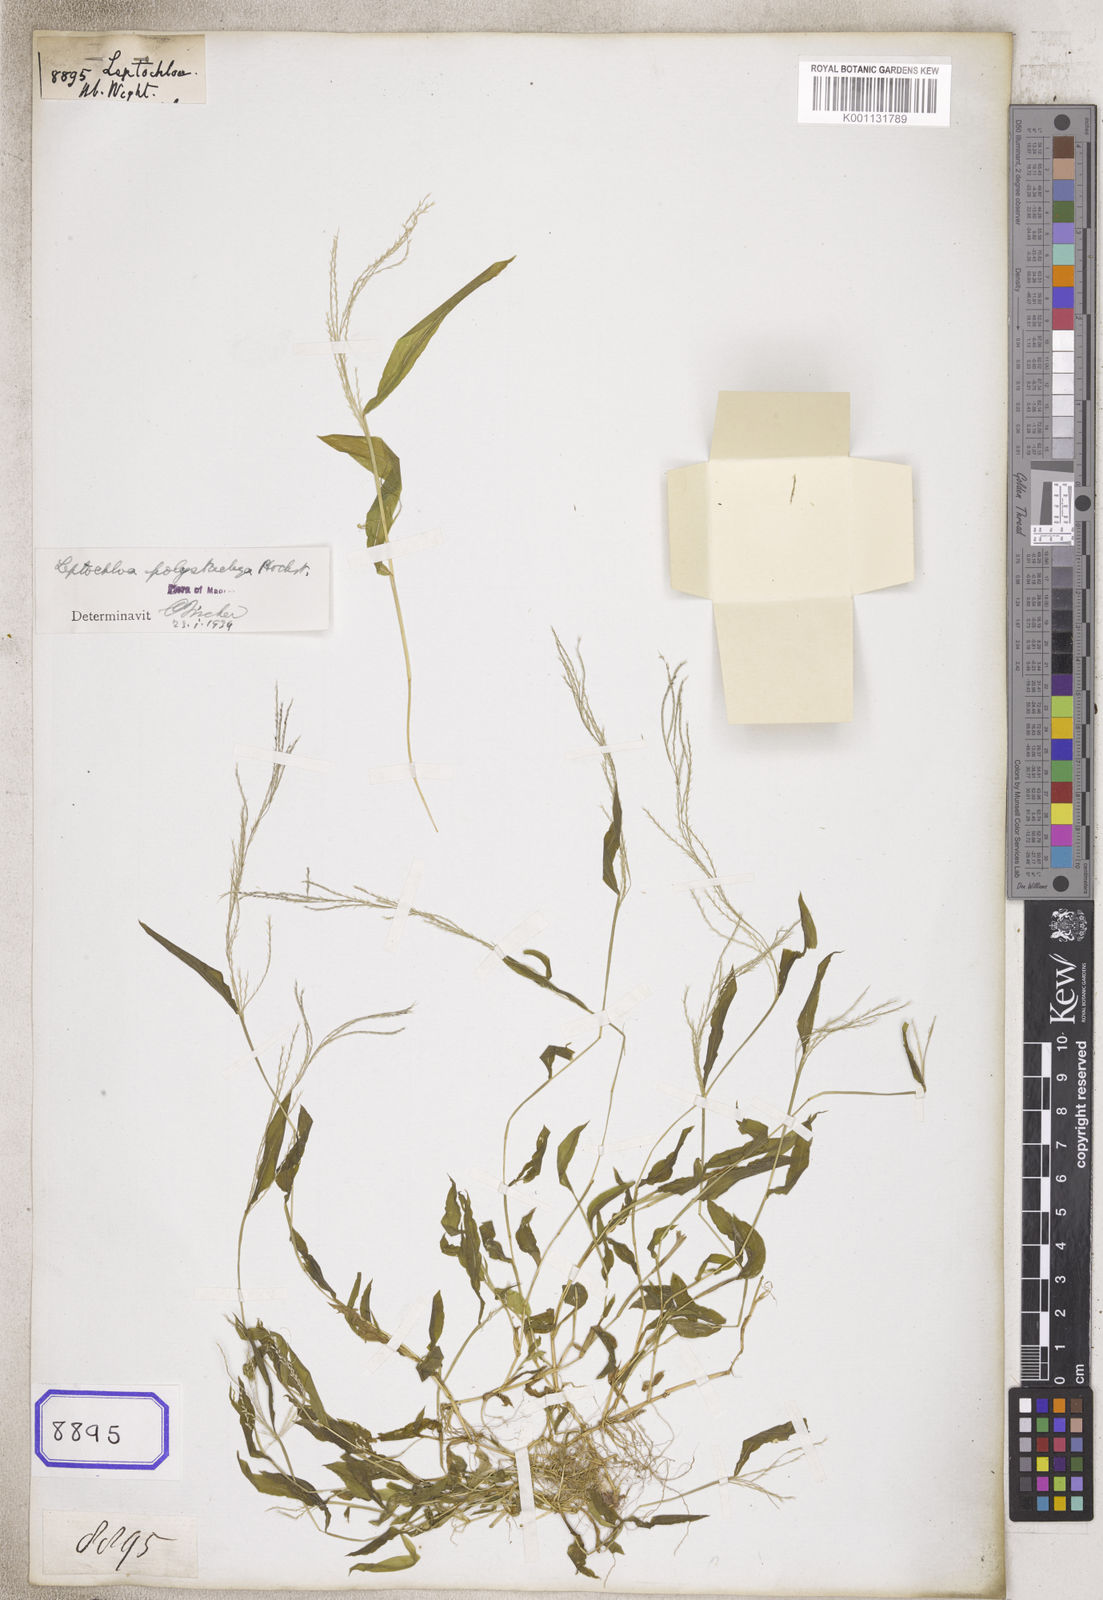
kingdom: Plantae
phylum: Tracheophyta
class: Liliopsida
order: Poales
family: Poaceae
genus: Leptochloa
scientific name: Leptochloa
